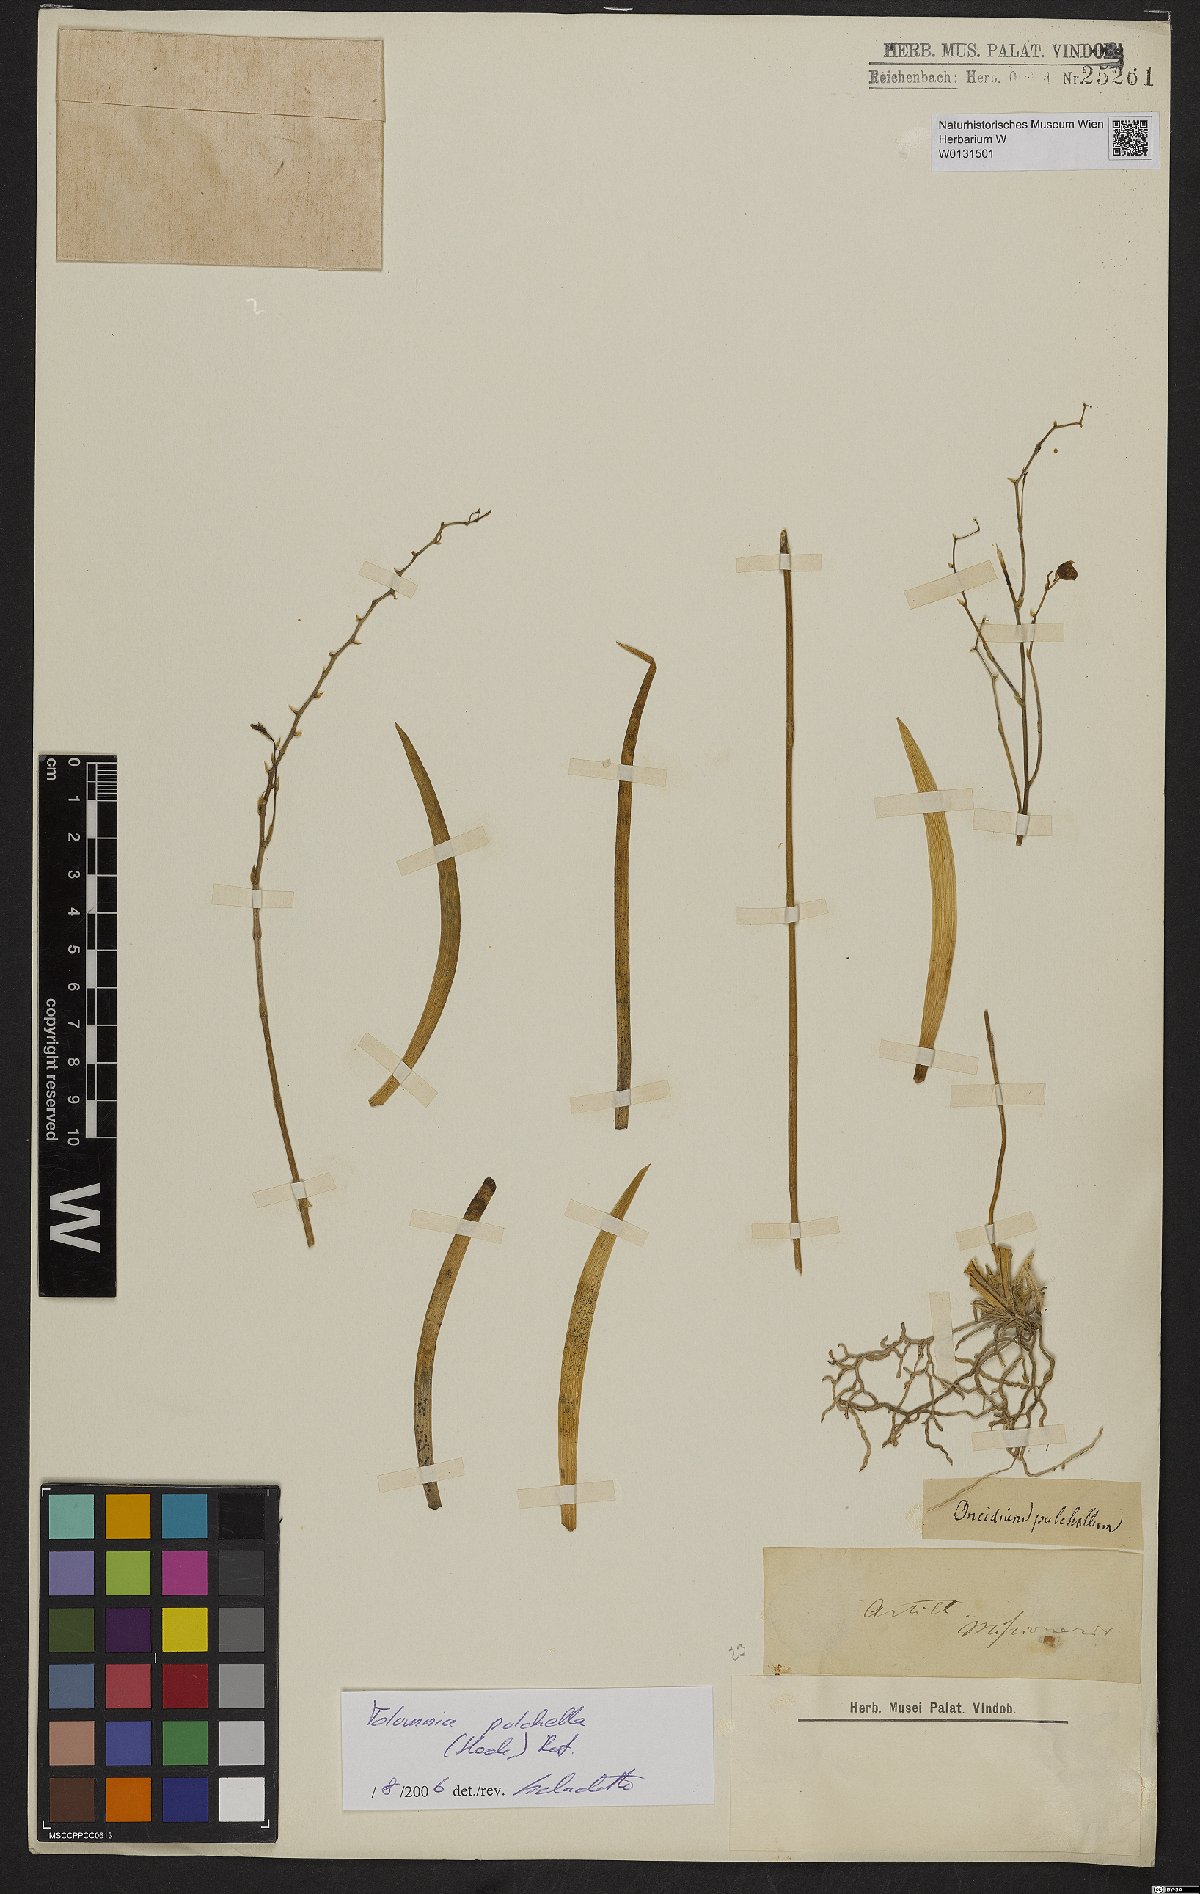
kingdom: Plantae
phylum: Tracheophyta
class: Liliopsida
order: Asparagales
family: Orchidaceae
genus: Tolumnia
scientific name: Tolumnia pulchella
